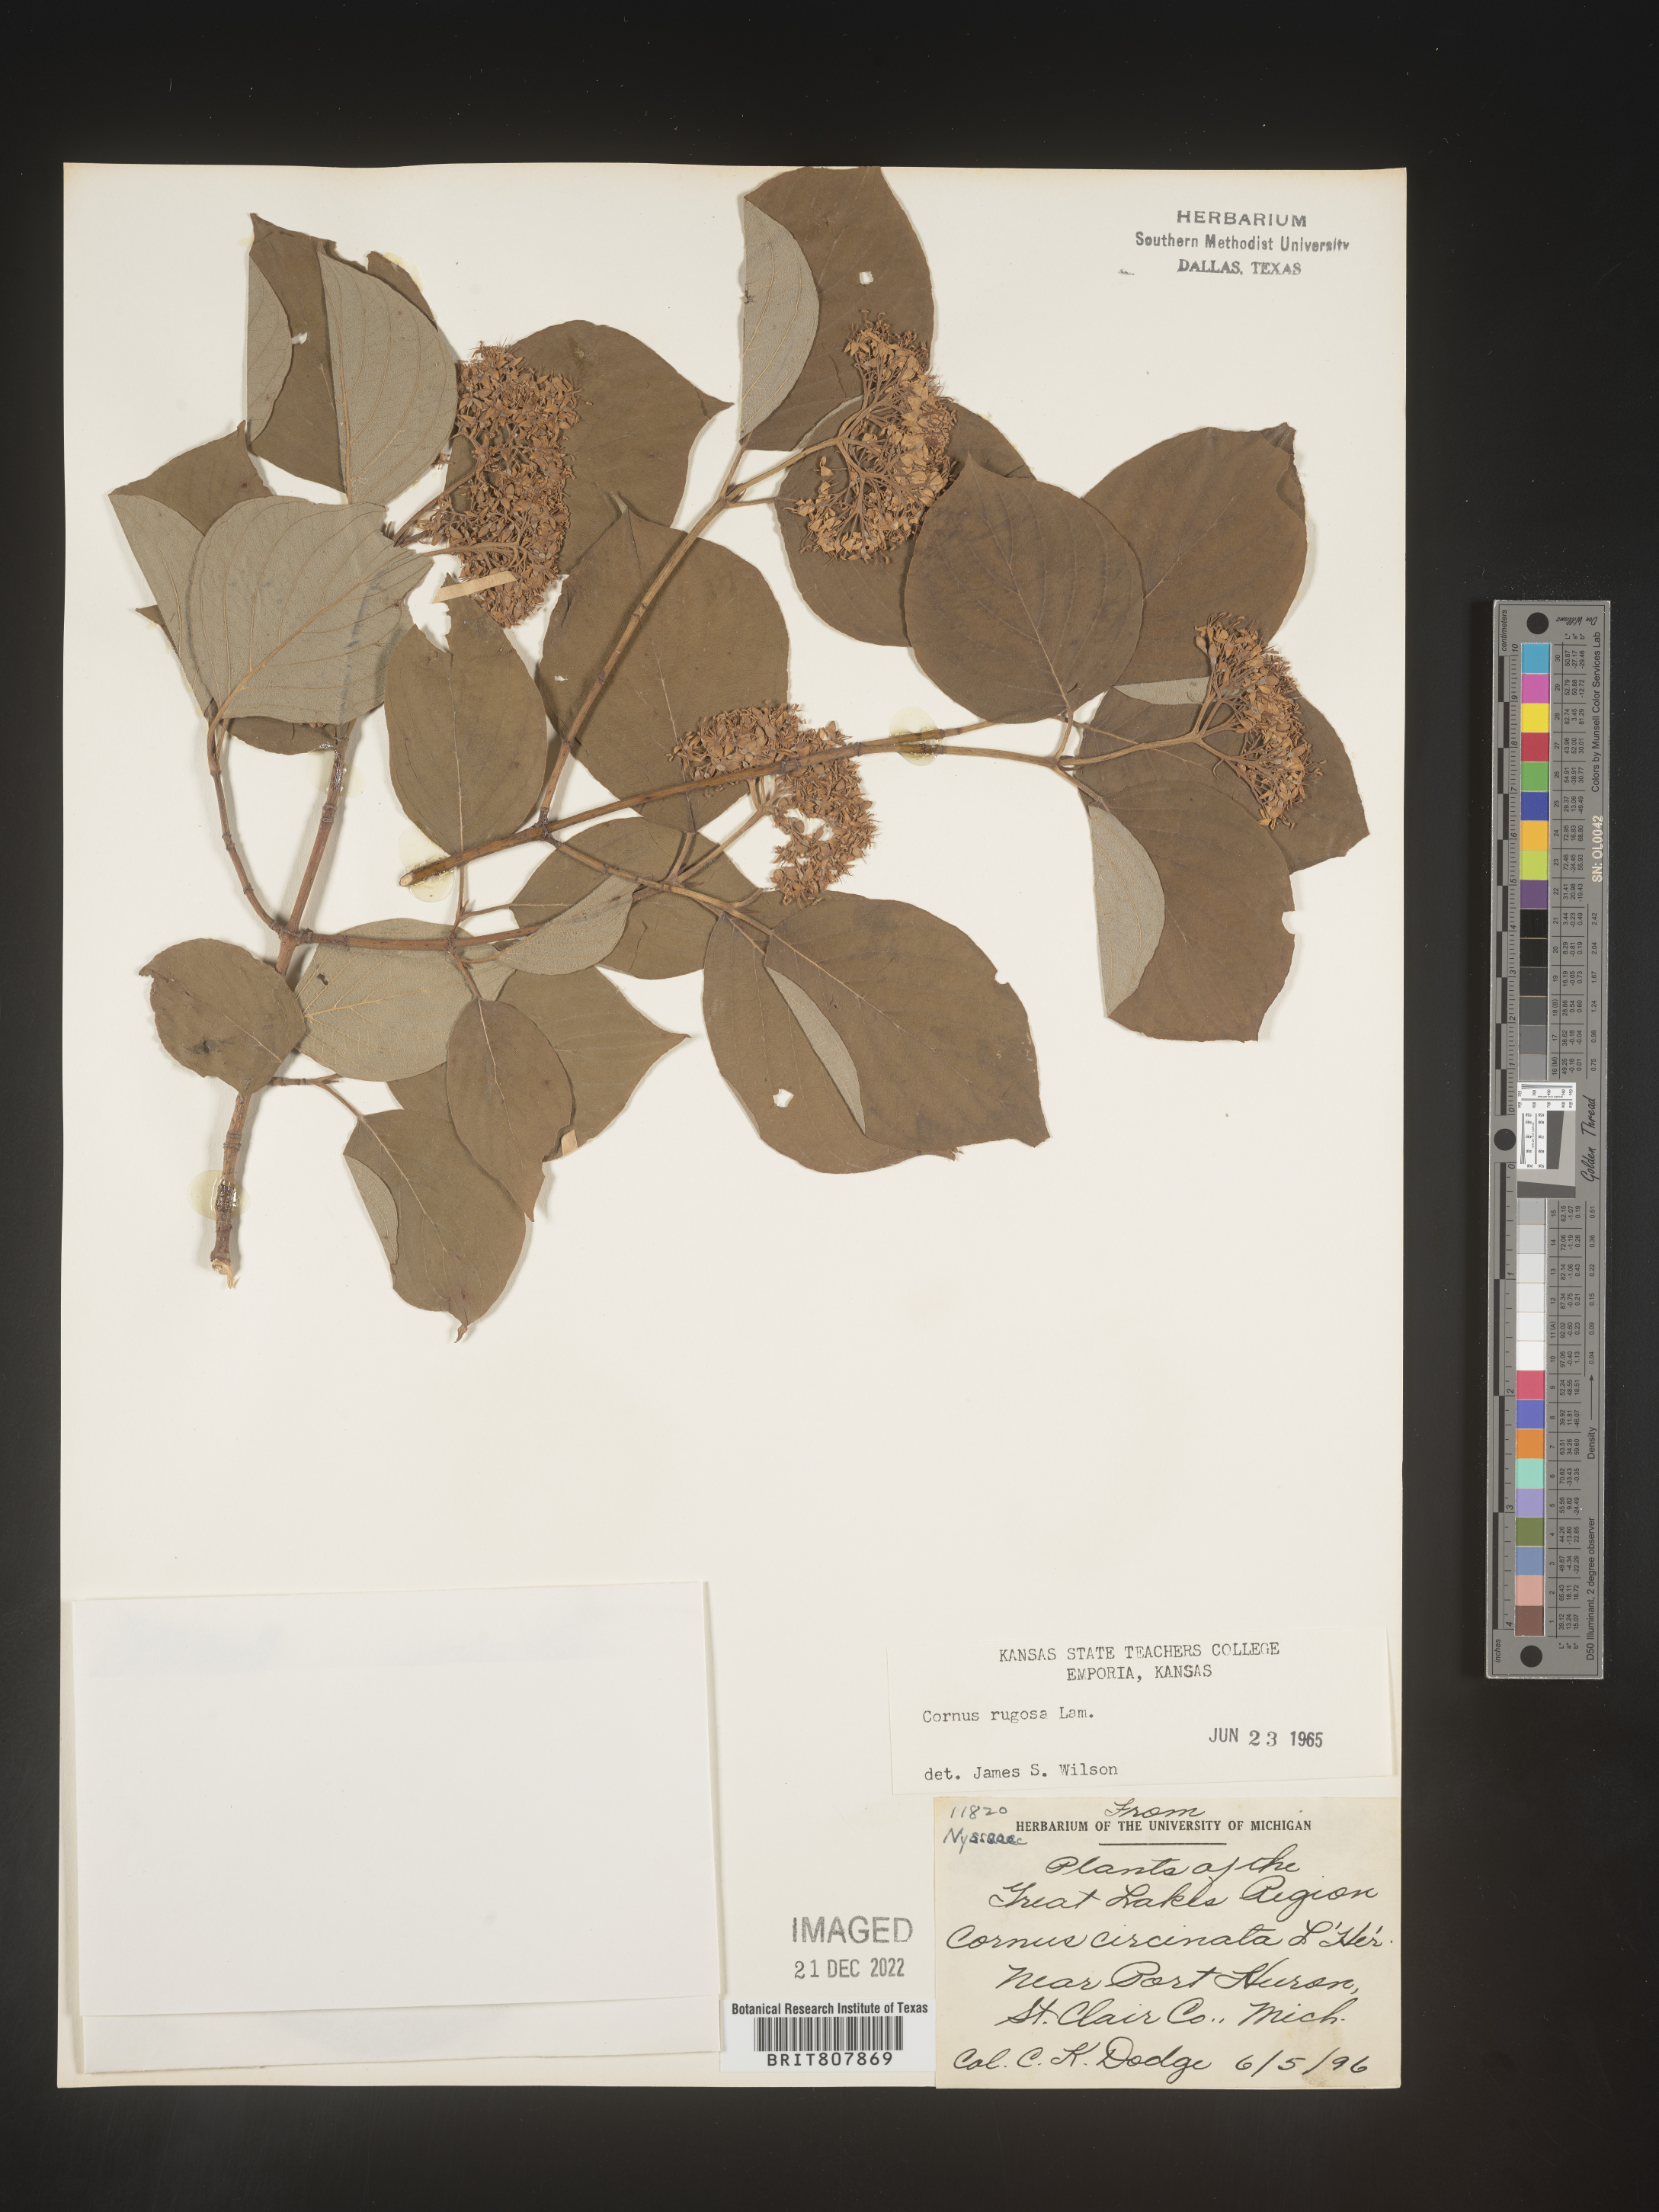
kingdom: Plantae
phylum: Tracheophyta
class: Magnoliopsida
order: Cornales
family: Cornaceae
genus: Cornus
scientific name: Cornus rugosa
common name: Round-leaf dogwood
